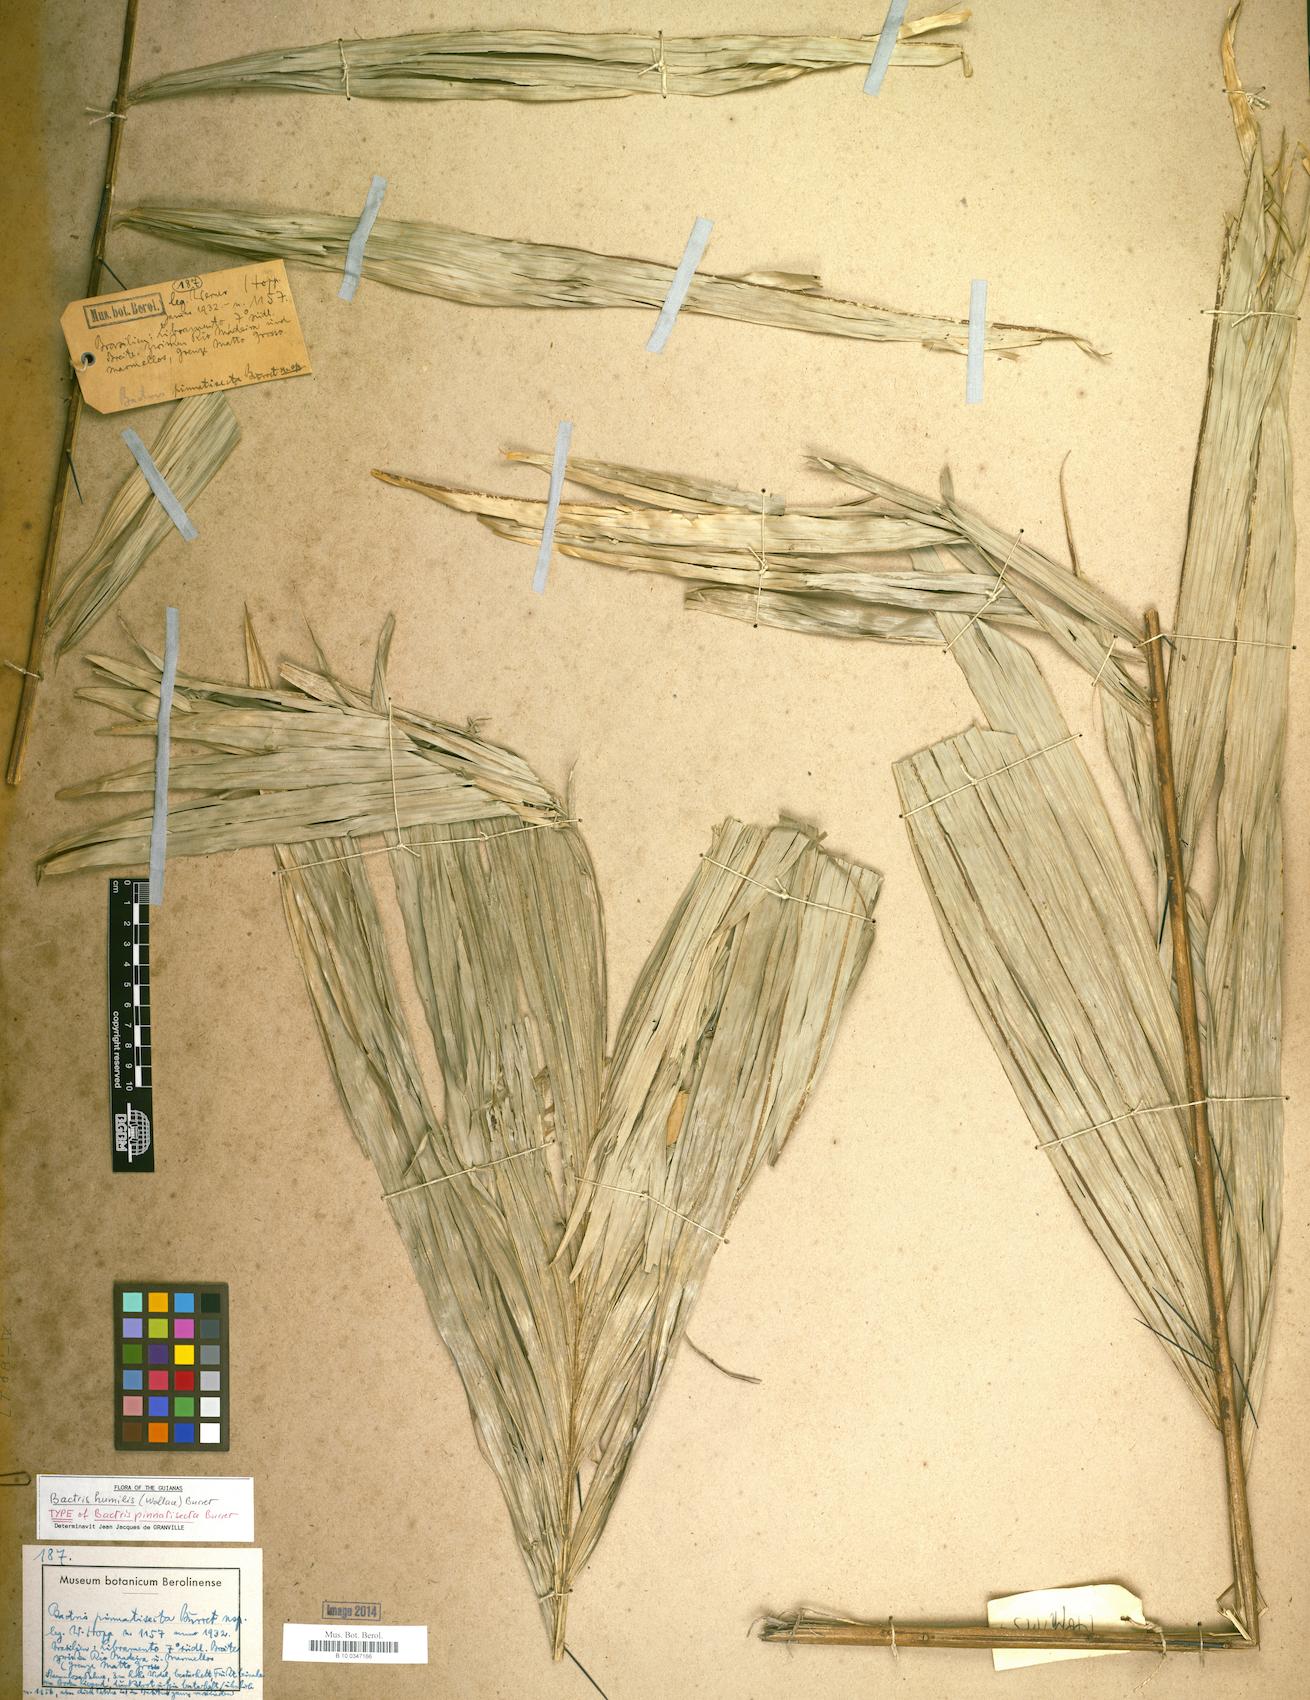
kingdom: Plantae
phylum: Tracheophyta
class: Liliopsida
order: Arecales
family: Arecaceae
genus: Bactris
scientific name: Bactris acanthocarpa
